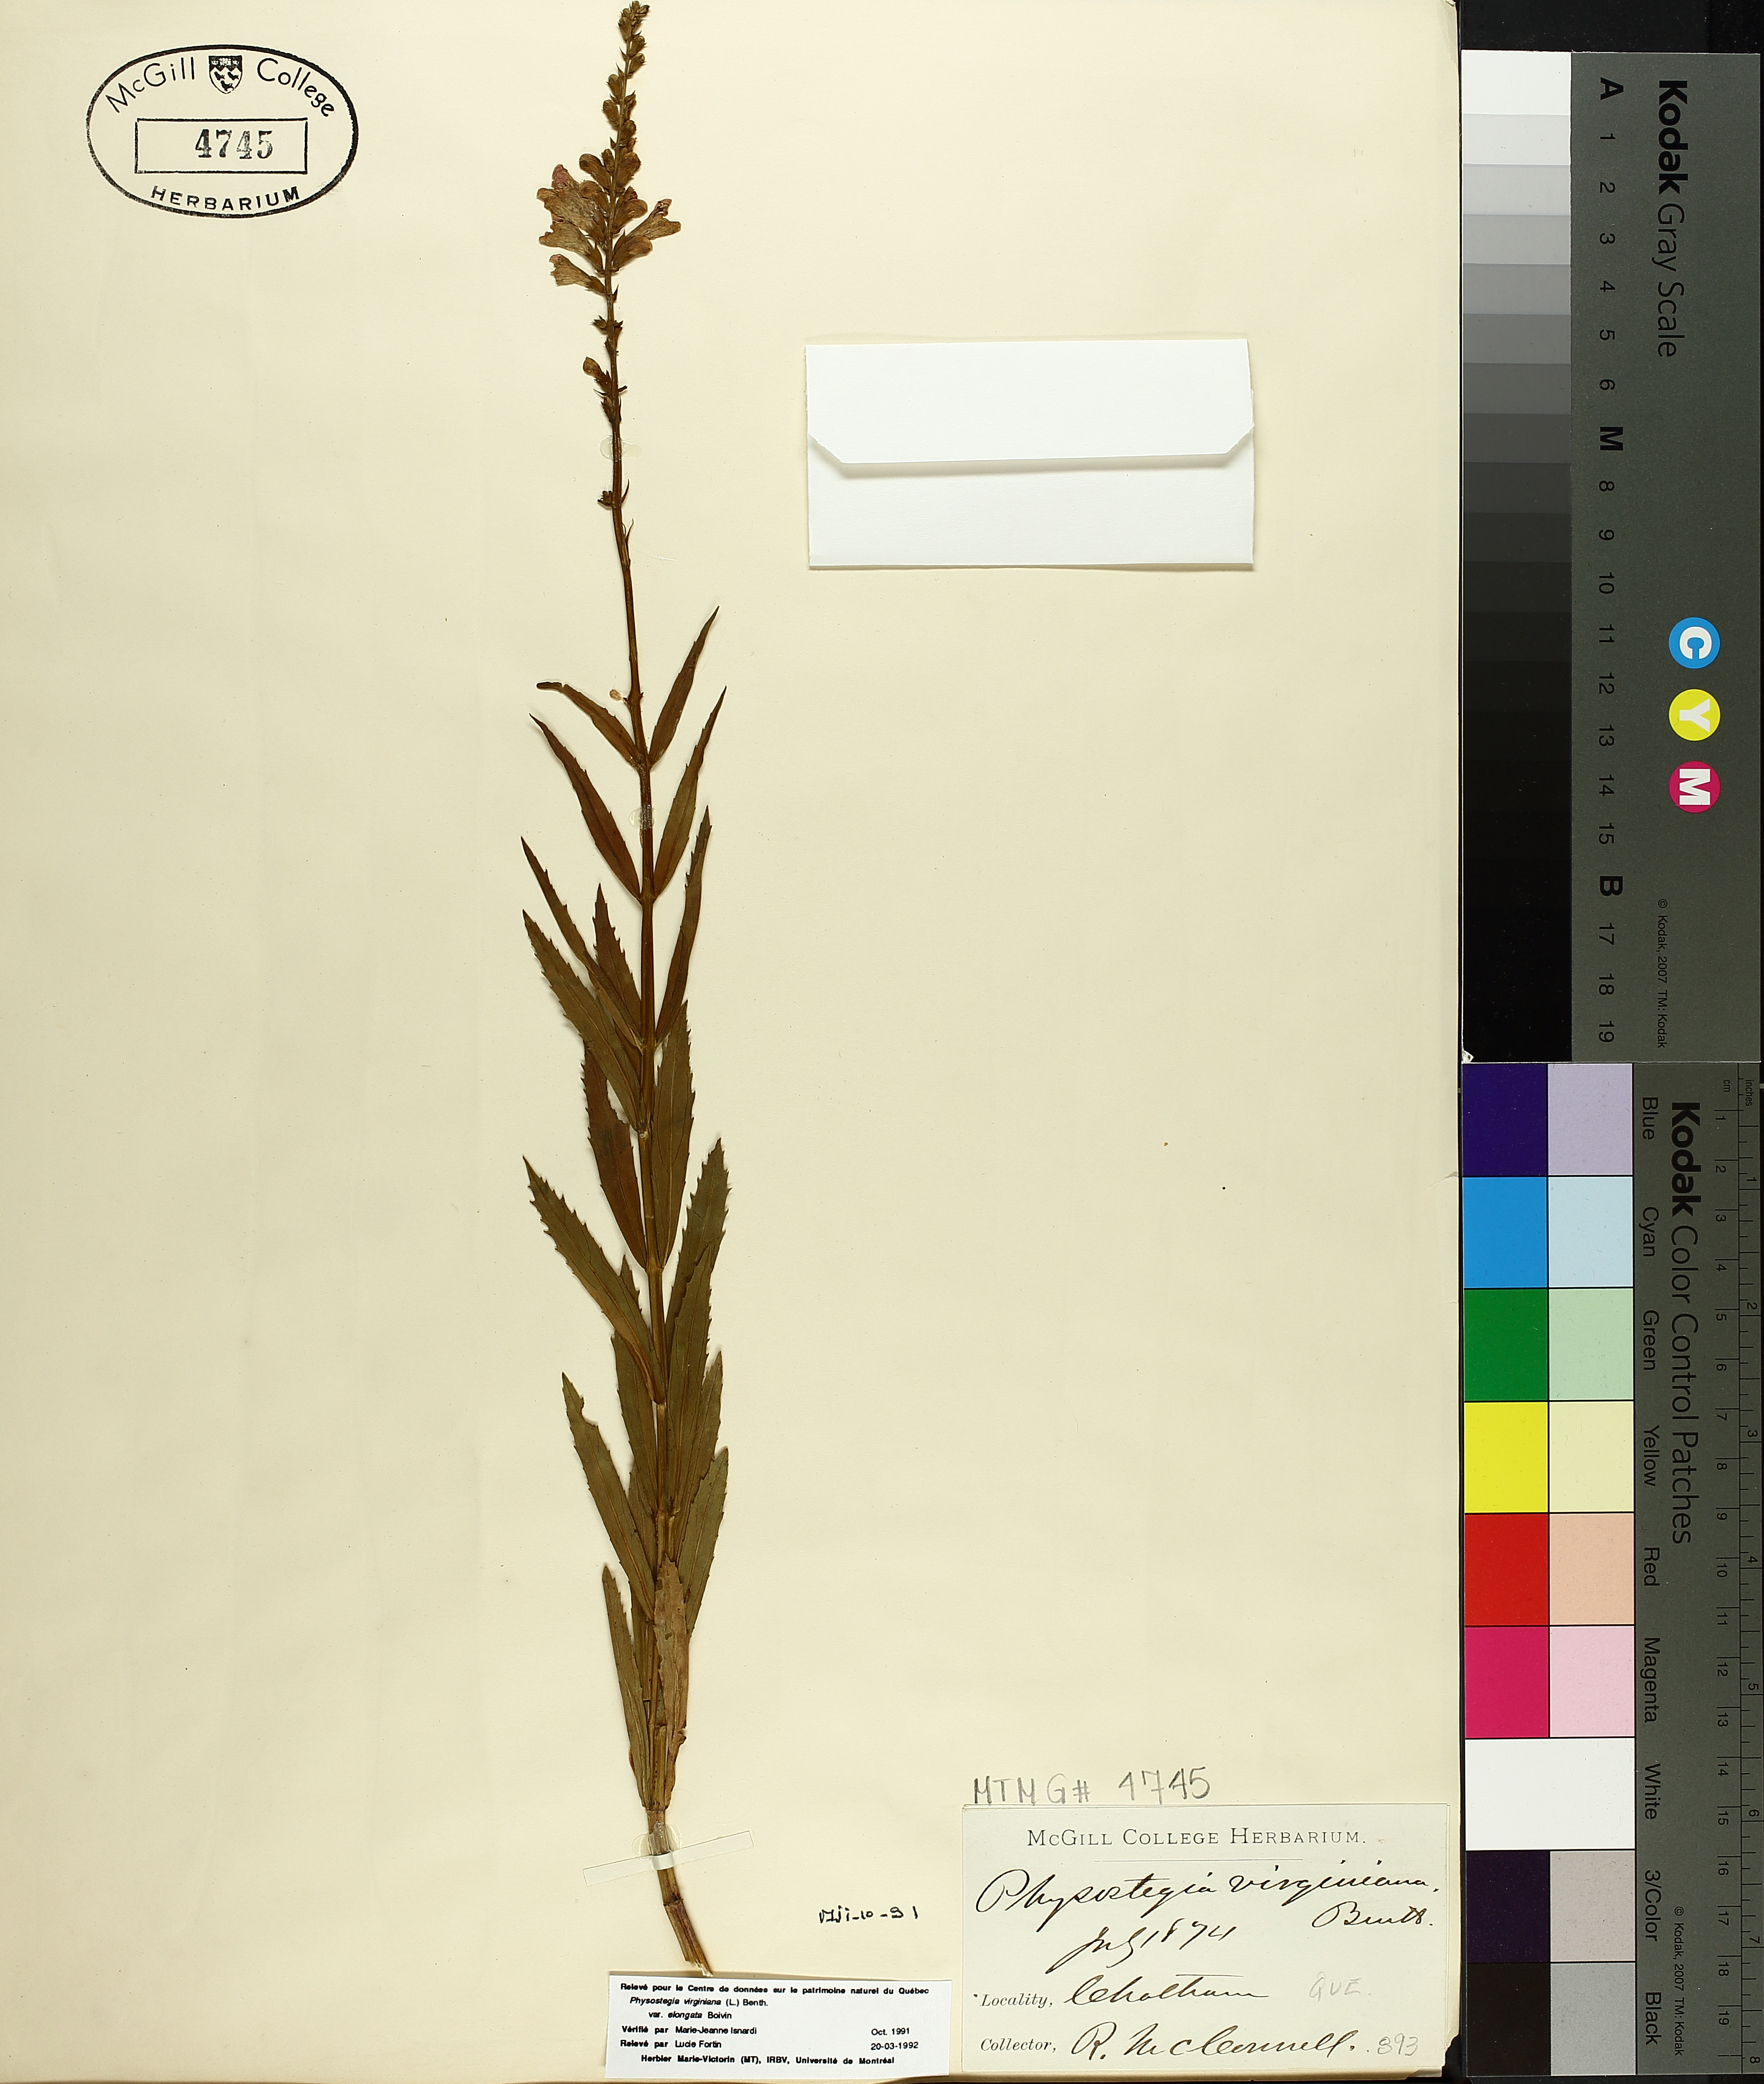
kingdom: Plantae
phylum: Tracheophyta
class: Magnoliopsida
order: Boraginales
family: Hydrophyllaceae
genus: Hydrophyllum
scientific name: Hydrophyllum virginianum
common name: Virginia waterleaf
